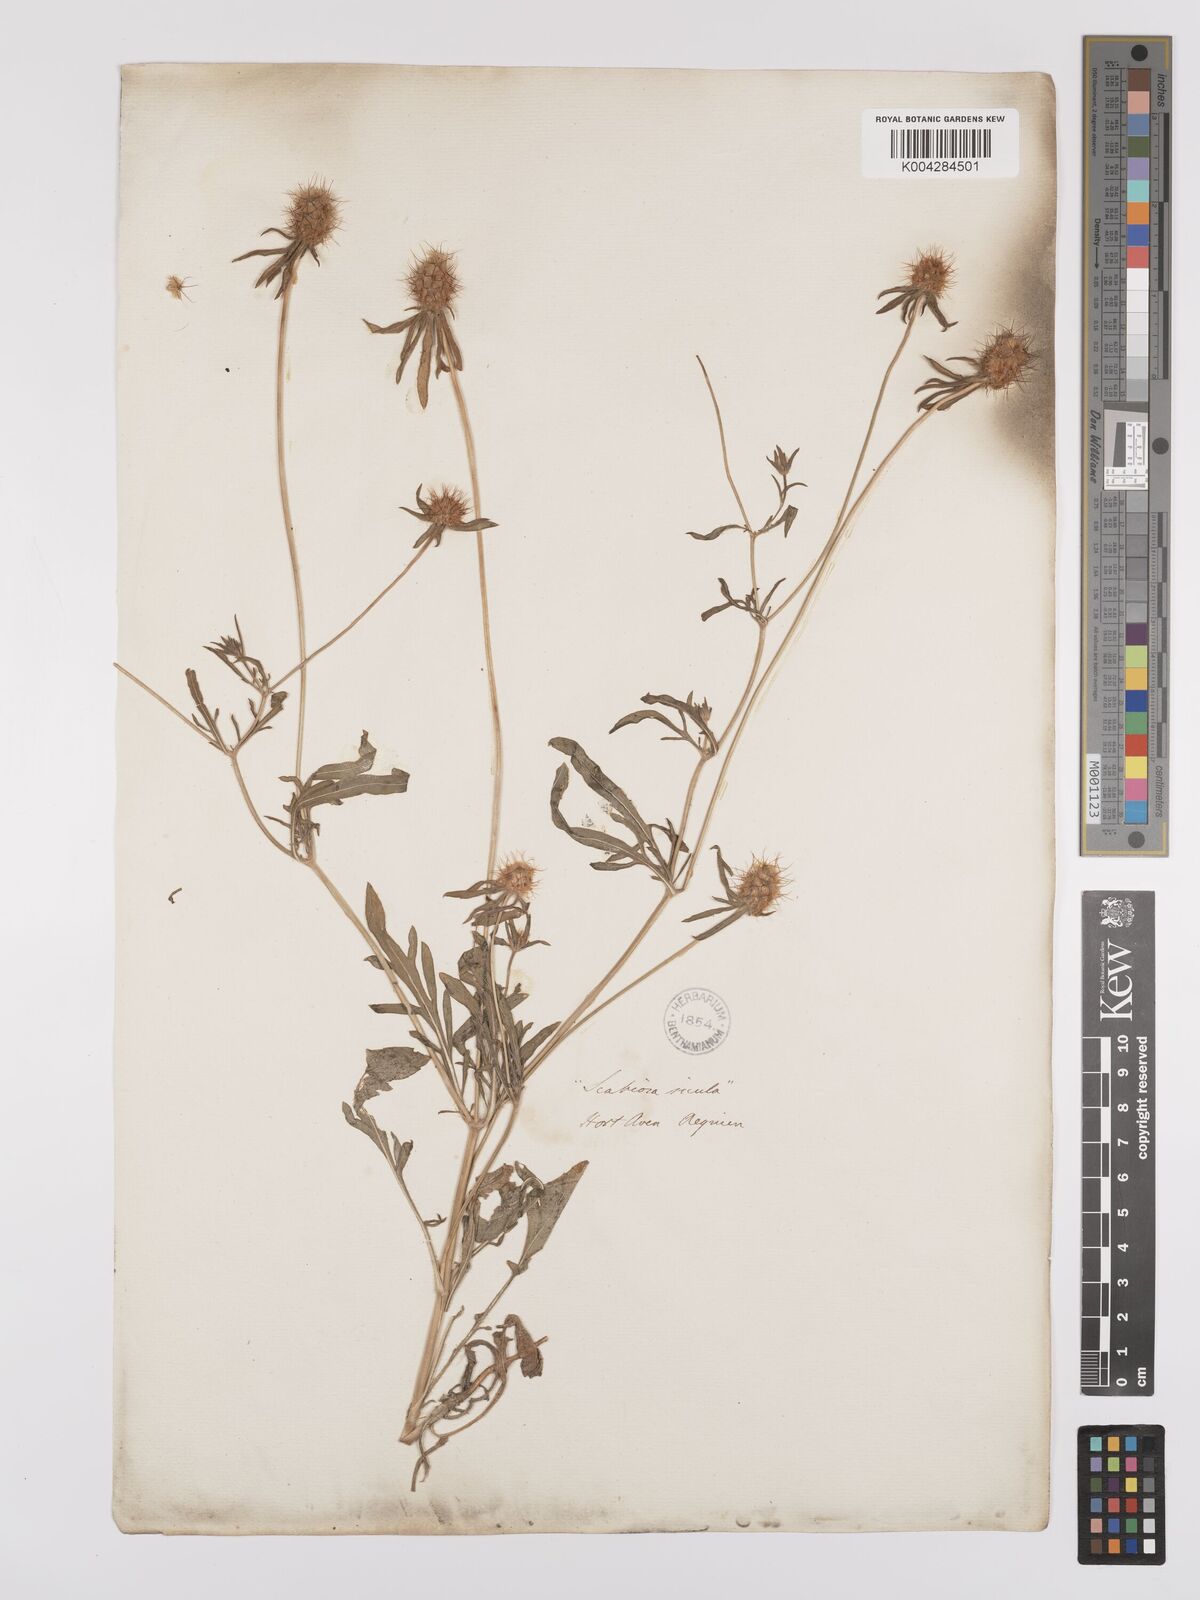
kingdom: Plantae
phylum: Tracheophyta
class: Magnoliopsida
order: Dipsacales
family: Caprifoliaceae
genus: Lomelosia
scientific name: Lomelosia divaricata
